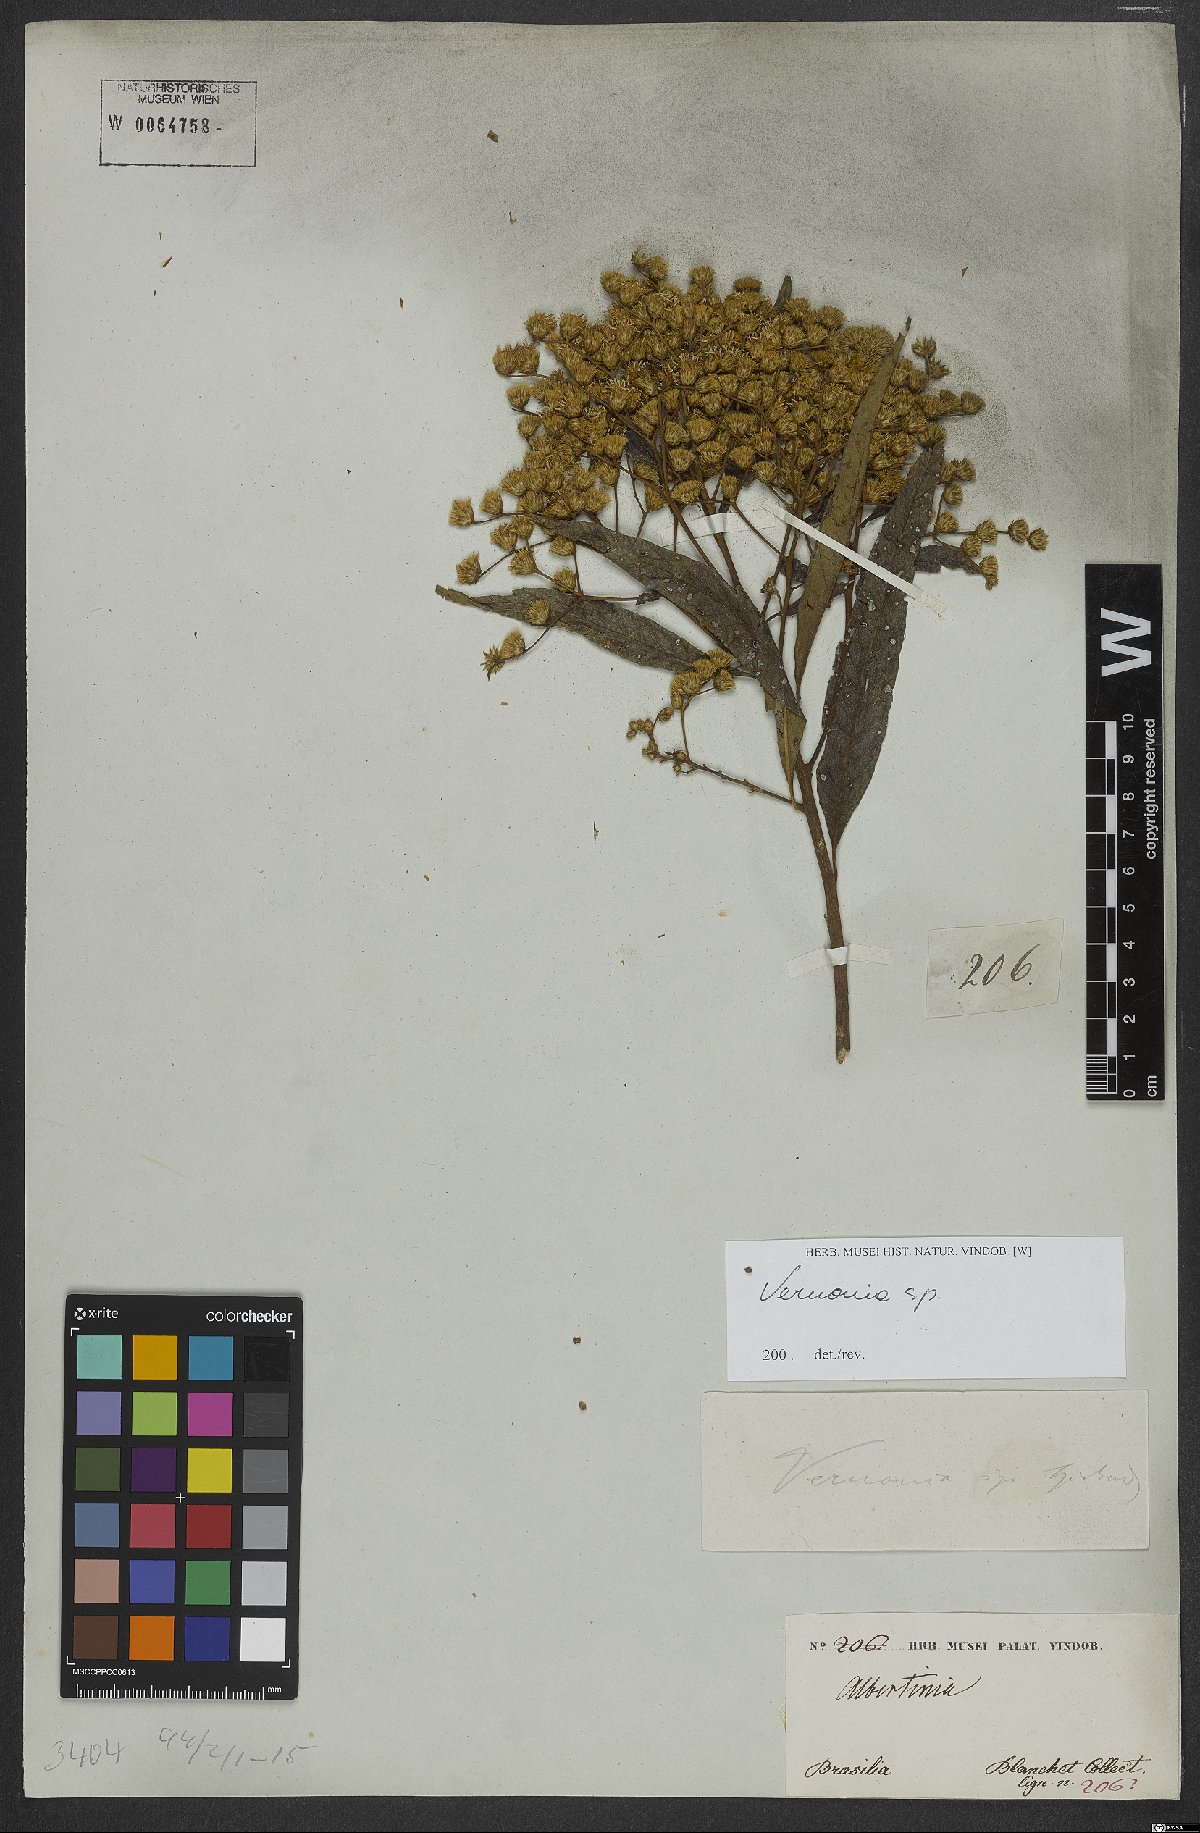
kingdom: Plantae
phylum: Tracheophyta
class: Magnoliopsida
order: Asterales
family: Asteraceae
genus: Vernonia
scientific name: Vernonia
